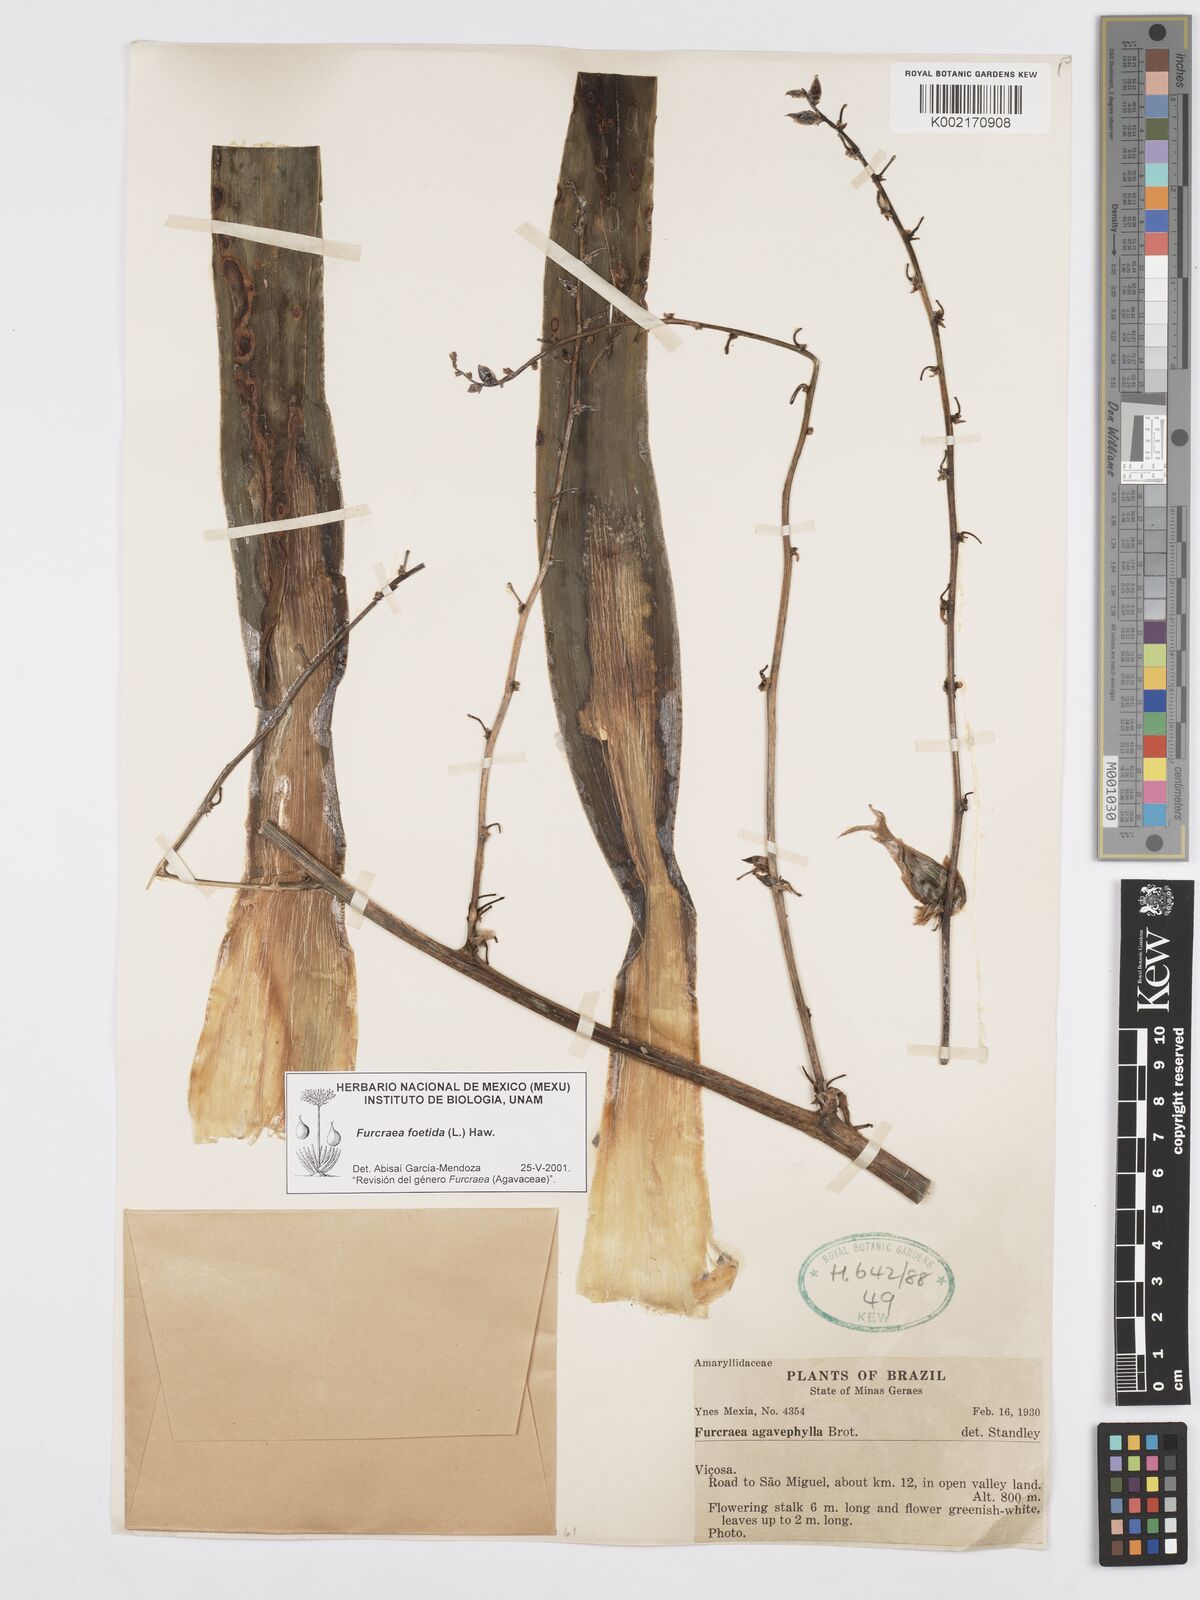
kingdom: Plantae
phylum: Tracheophyta
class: Liliopsida
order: Asparagales
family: Asparagaceae
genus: Furcraea
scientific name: Furcraea foetida
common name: Mauritius hemp
